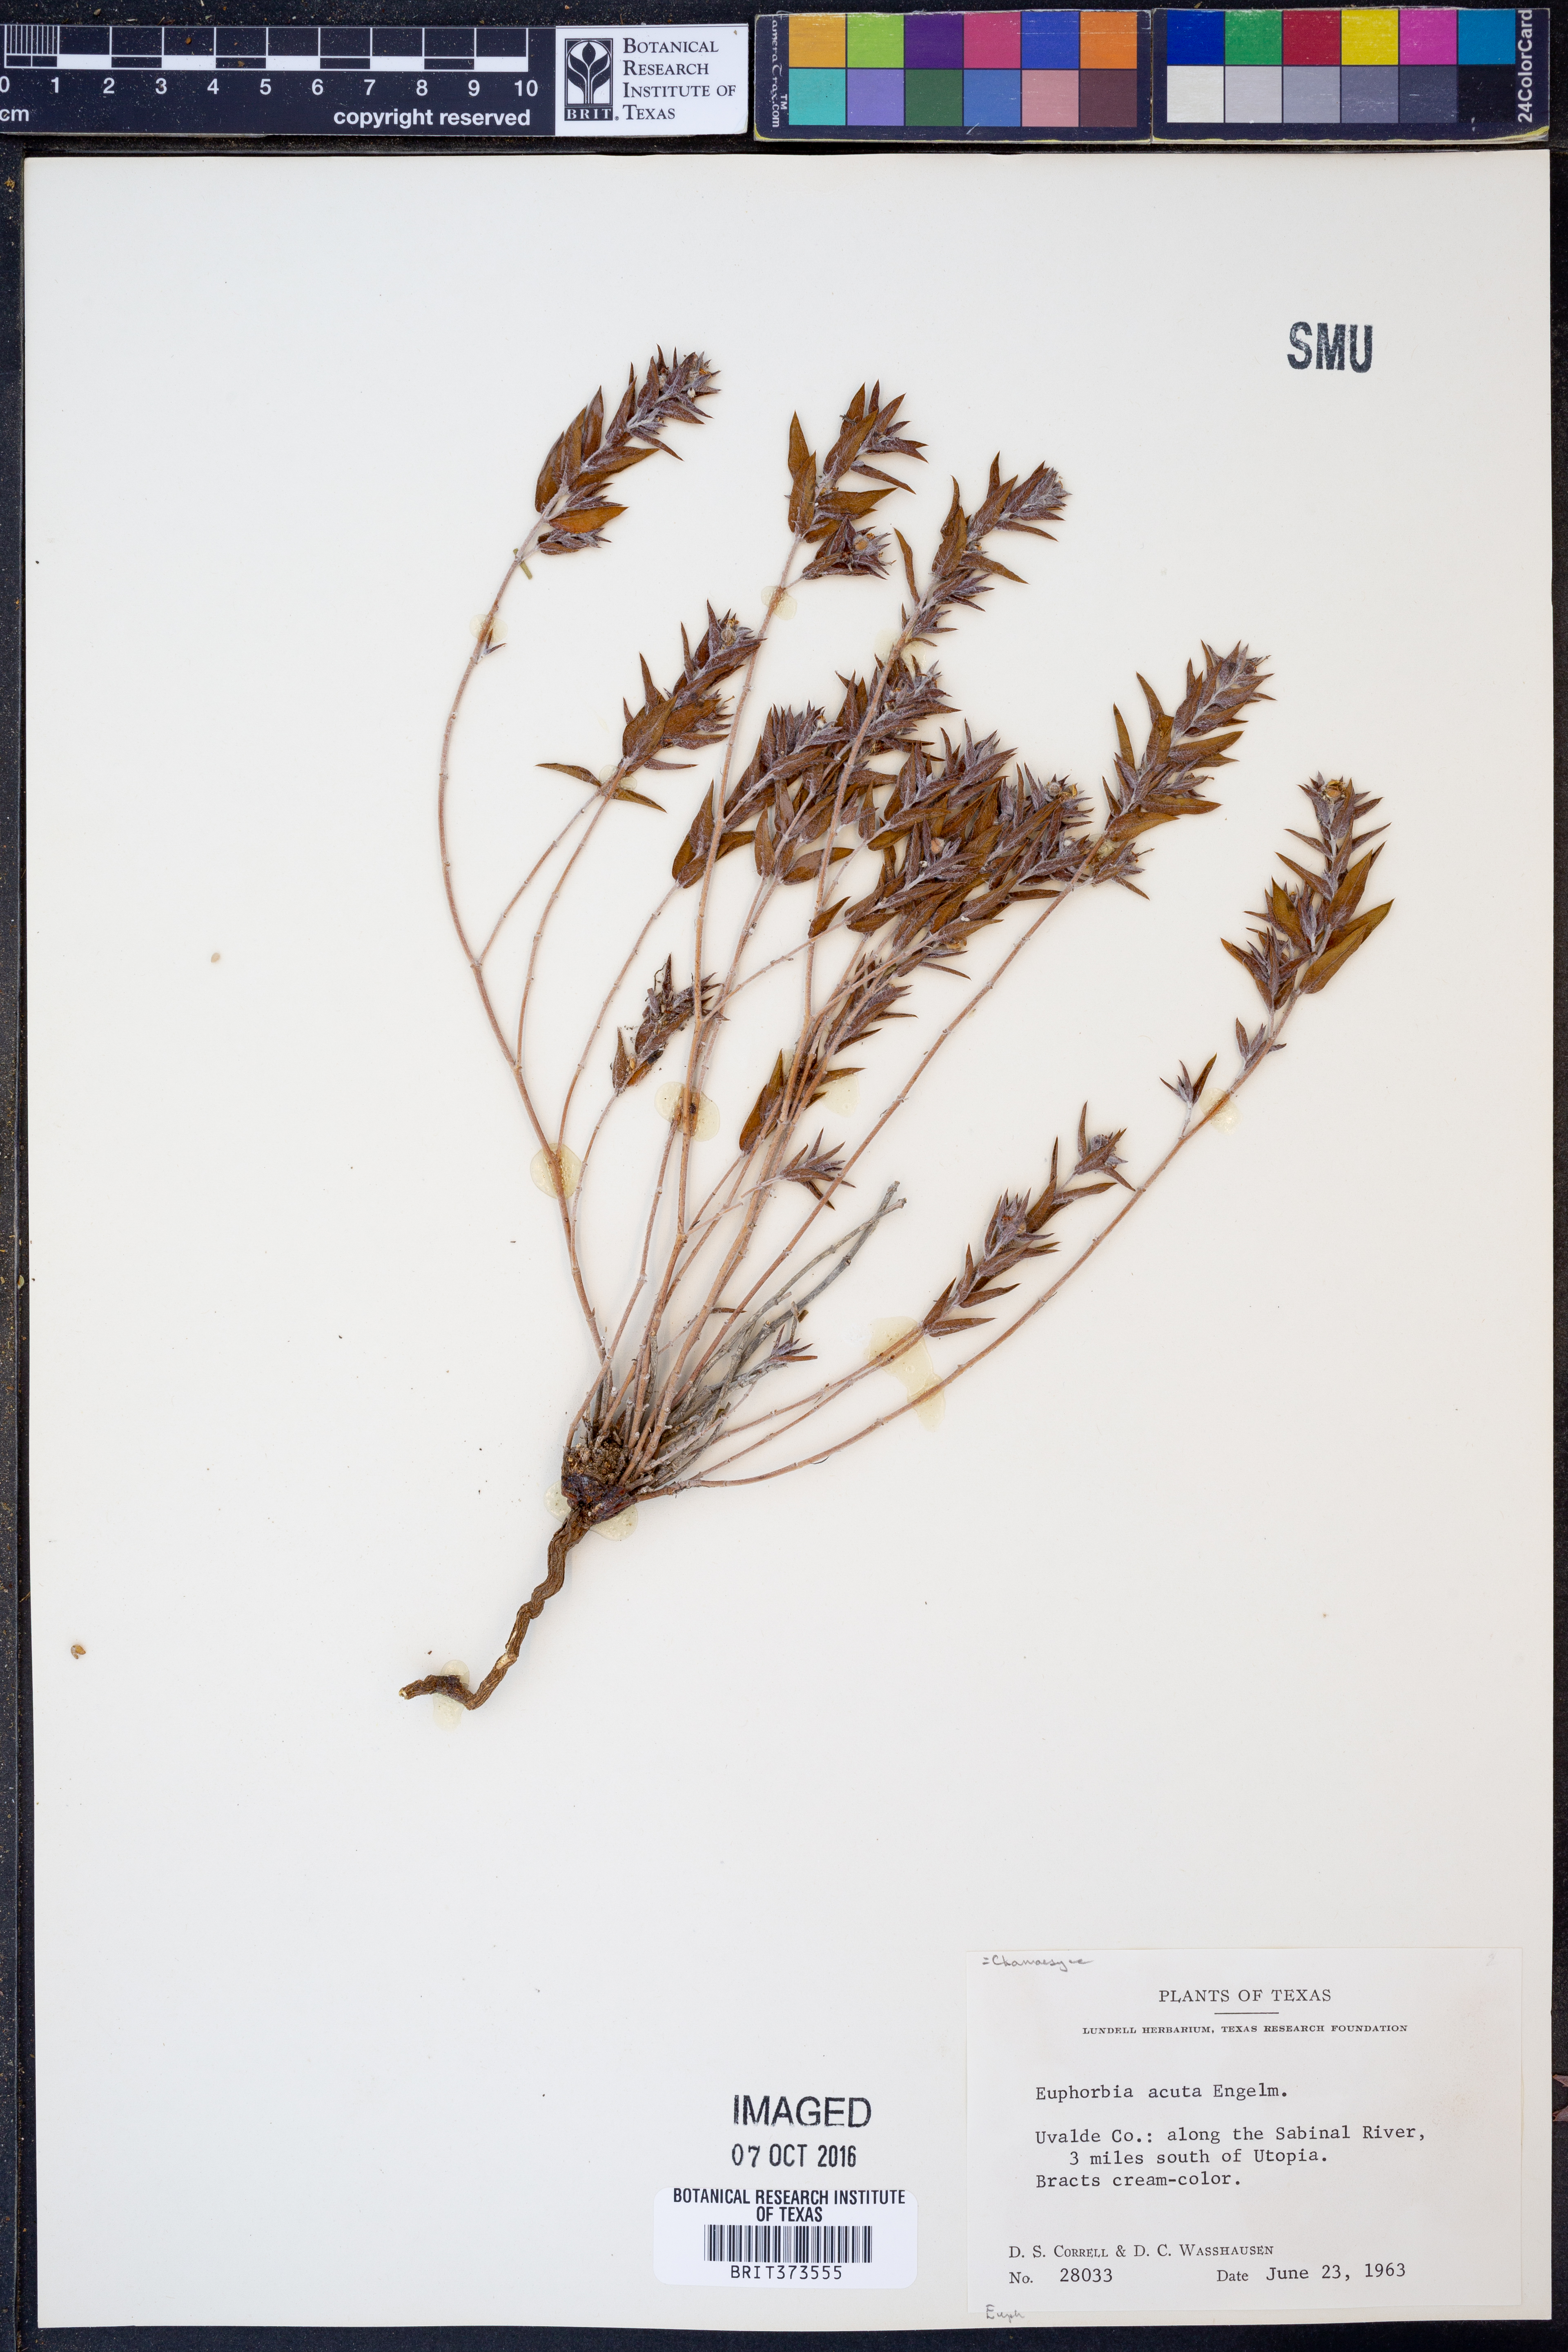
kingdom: Plantae
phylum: Tracheophyta
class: Magnoliopsida
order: Malpighiales
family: Euphorbiaceae
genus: Euphorbia
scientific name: Euphorbia acuta
